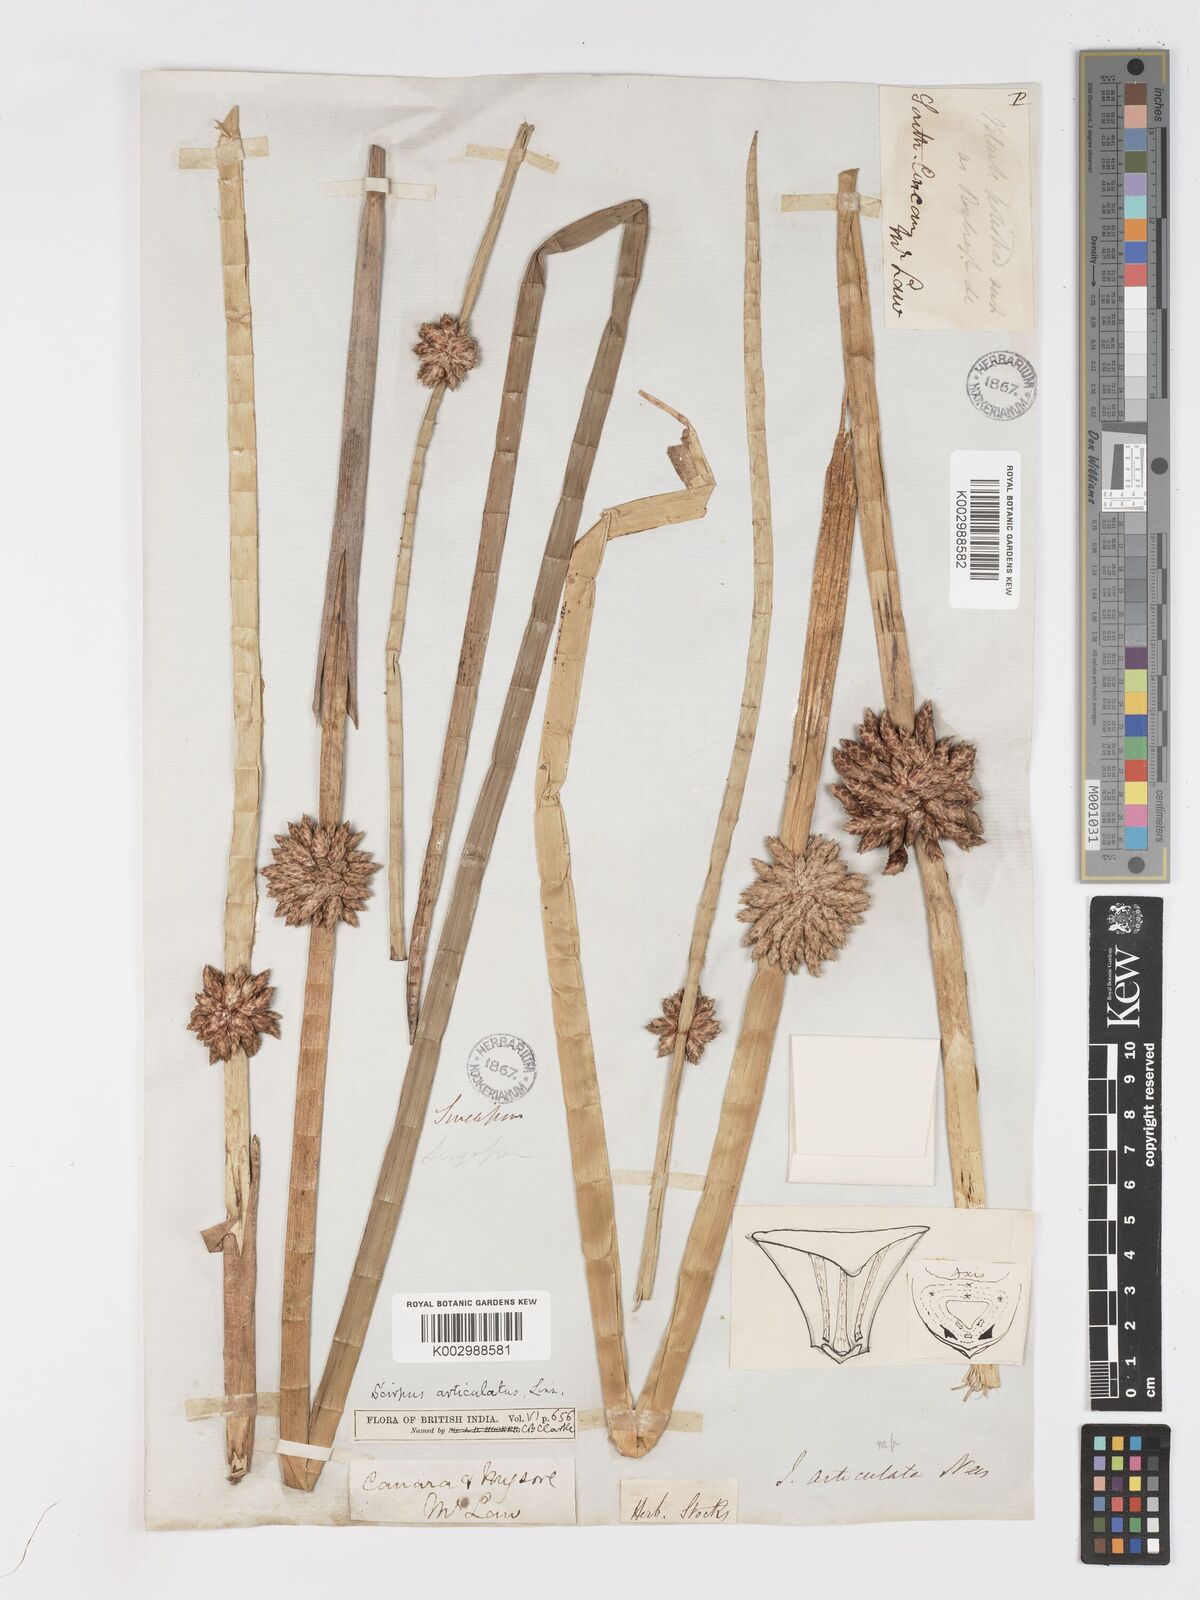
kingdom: Plantae
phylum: Tracheophyta
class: Liliopsida
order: Poales
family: Cyperaceae
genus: Schoenoplectiella
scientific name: Schoenoplectiella articulata
